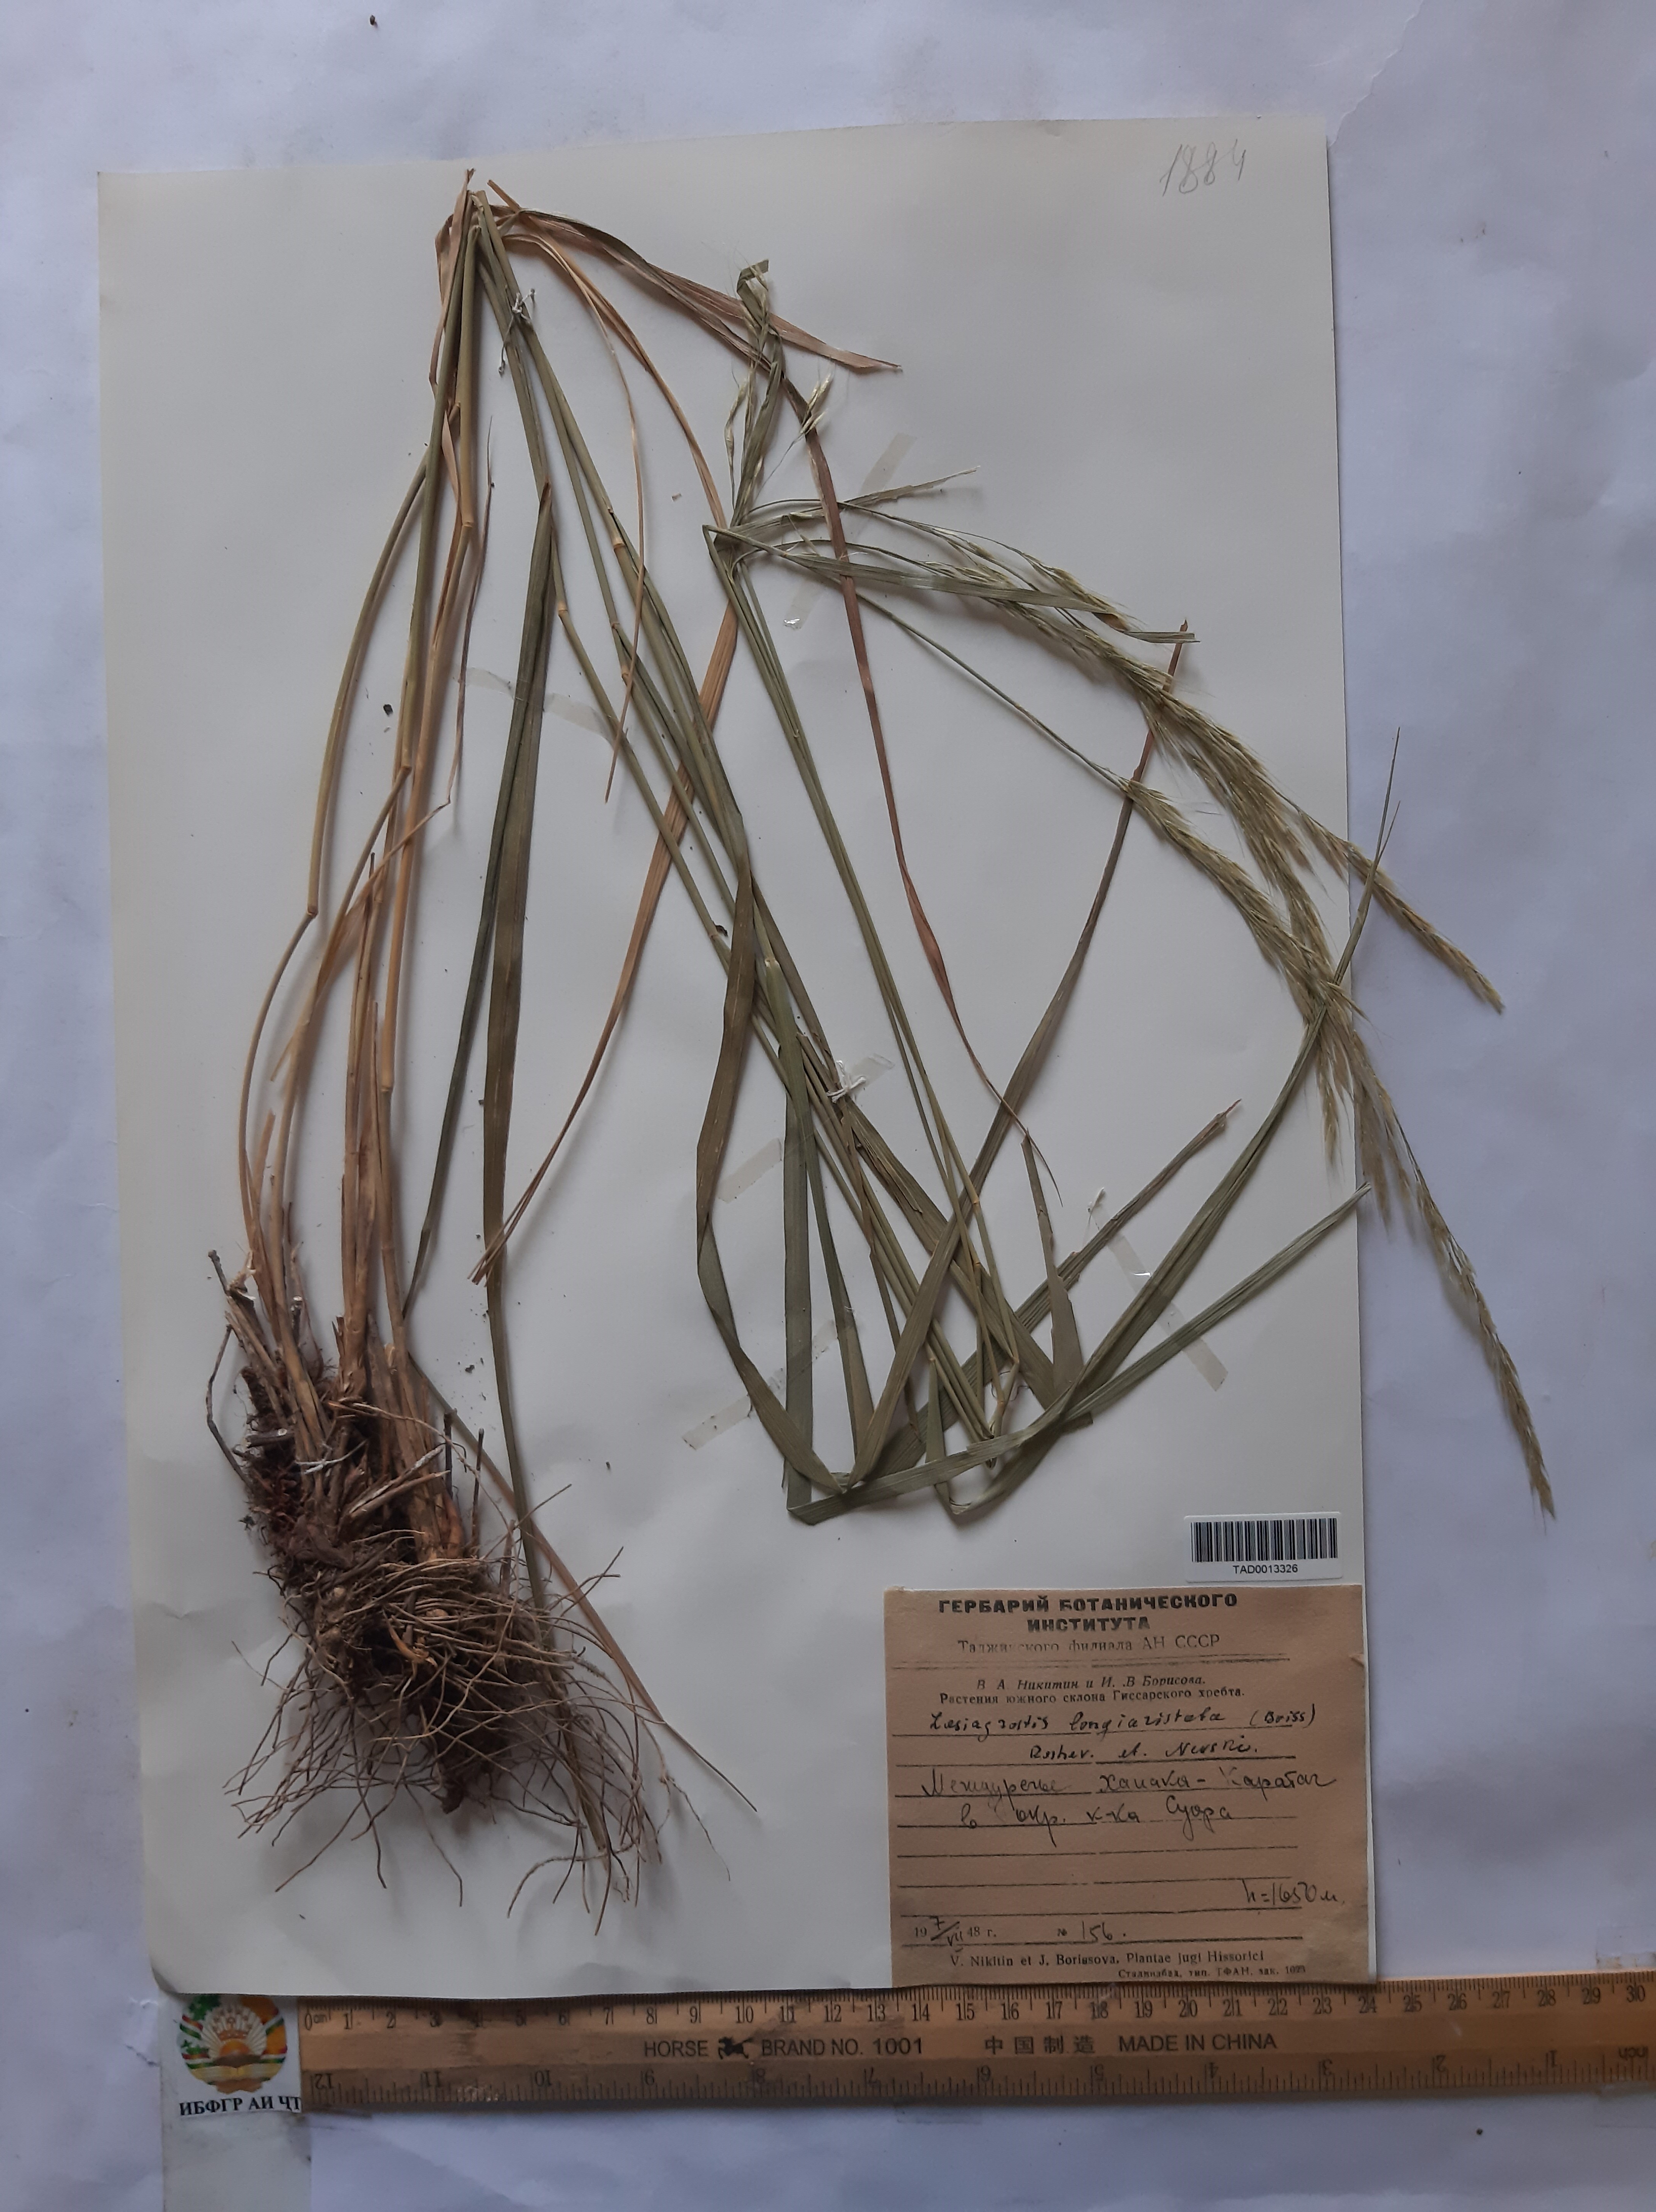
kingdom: Plantae
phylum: Tracheophyta
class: Liliopsida
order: Poales
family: Poaceae
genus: Achnatherum
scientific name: Achnatherum turcomanicum
